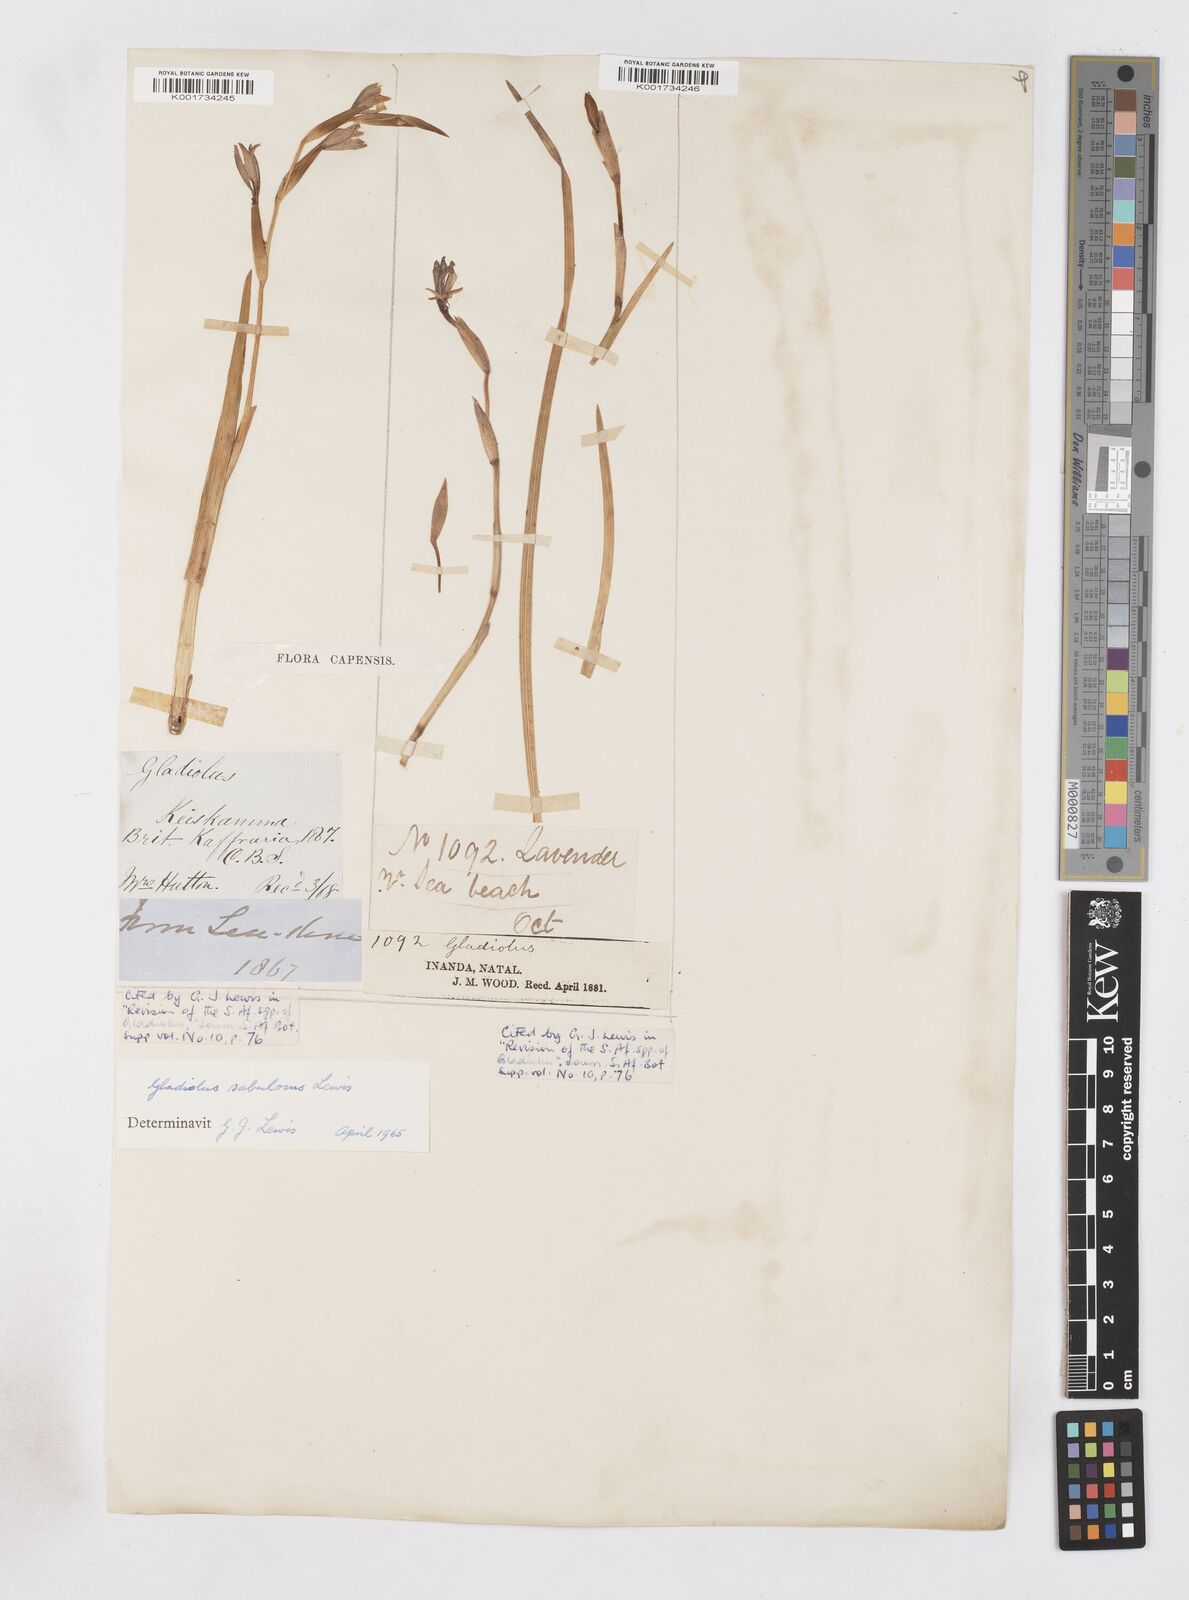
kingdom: Plantae
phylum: Tracheophyta
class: Liliopsida
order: Asparagales
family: Iridaceae
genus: Gladiolus
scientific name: Gladiolus gueinzii
